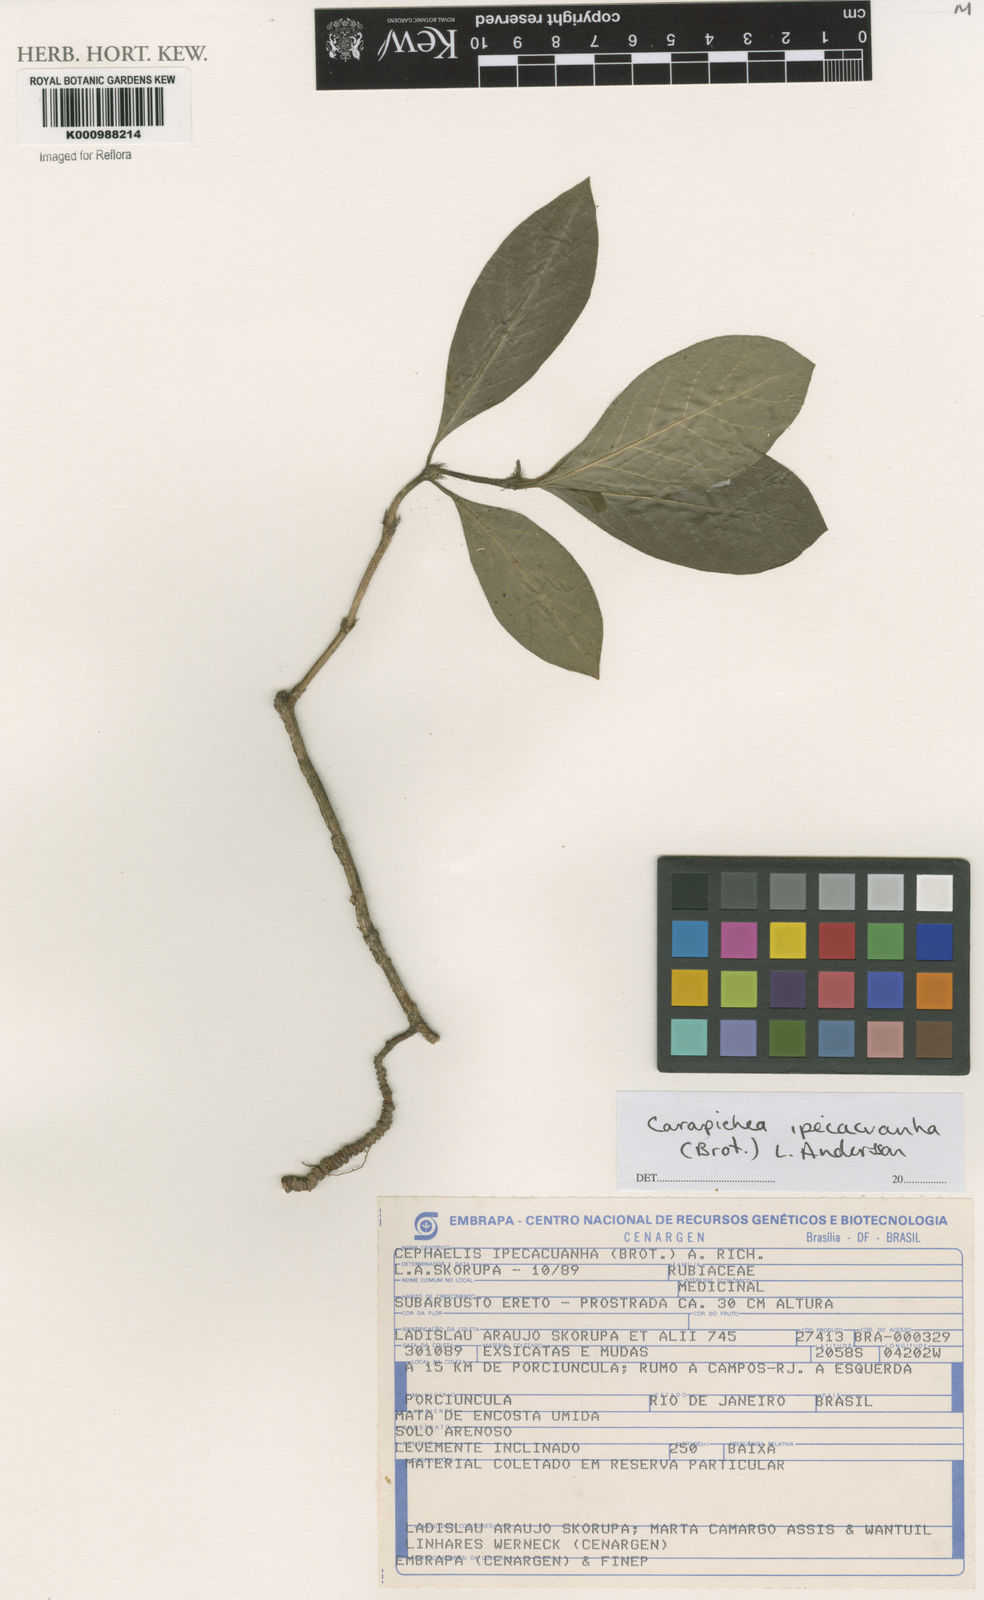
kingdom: Plantae
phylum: Tracheophyta
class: Magnoliopsida
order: Gentianales
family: Rubiaceae
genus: Carapichea
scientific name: Carapichea ipecacuanha
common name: Ipecac
